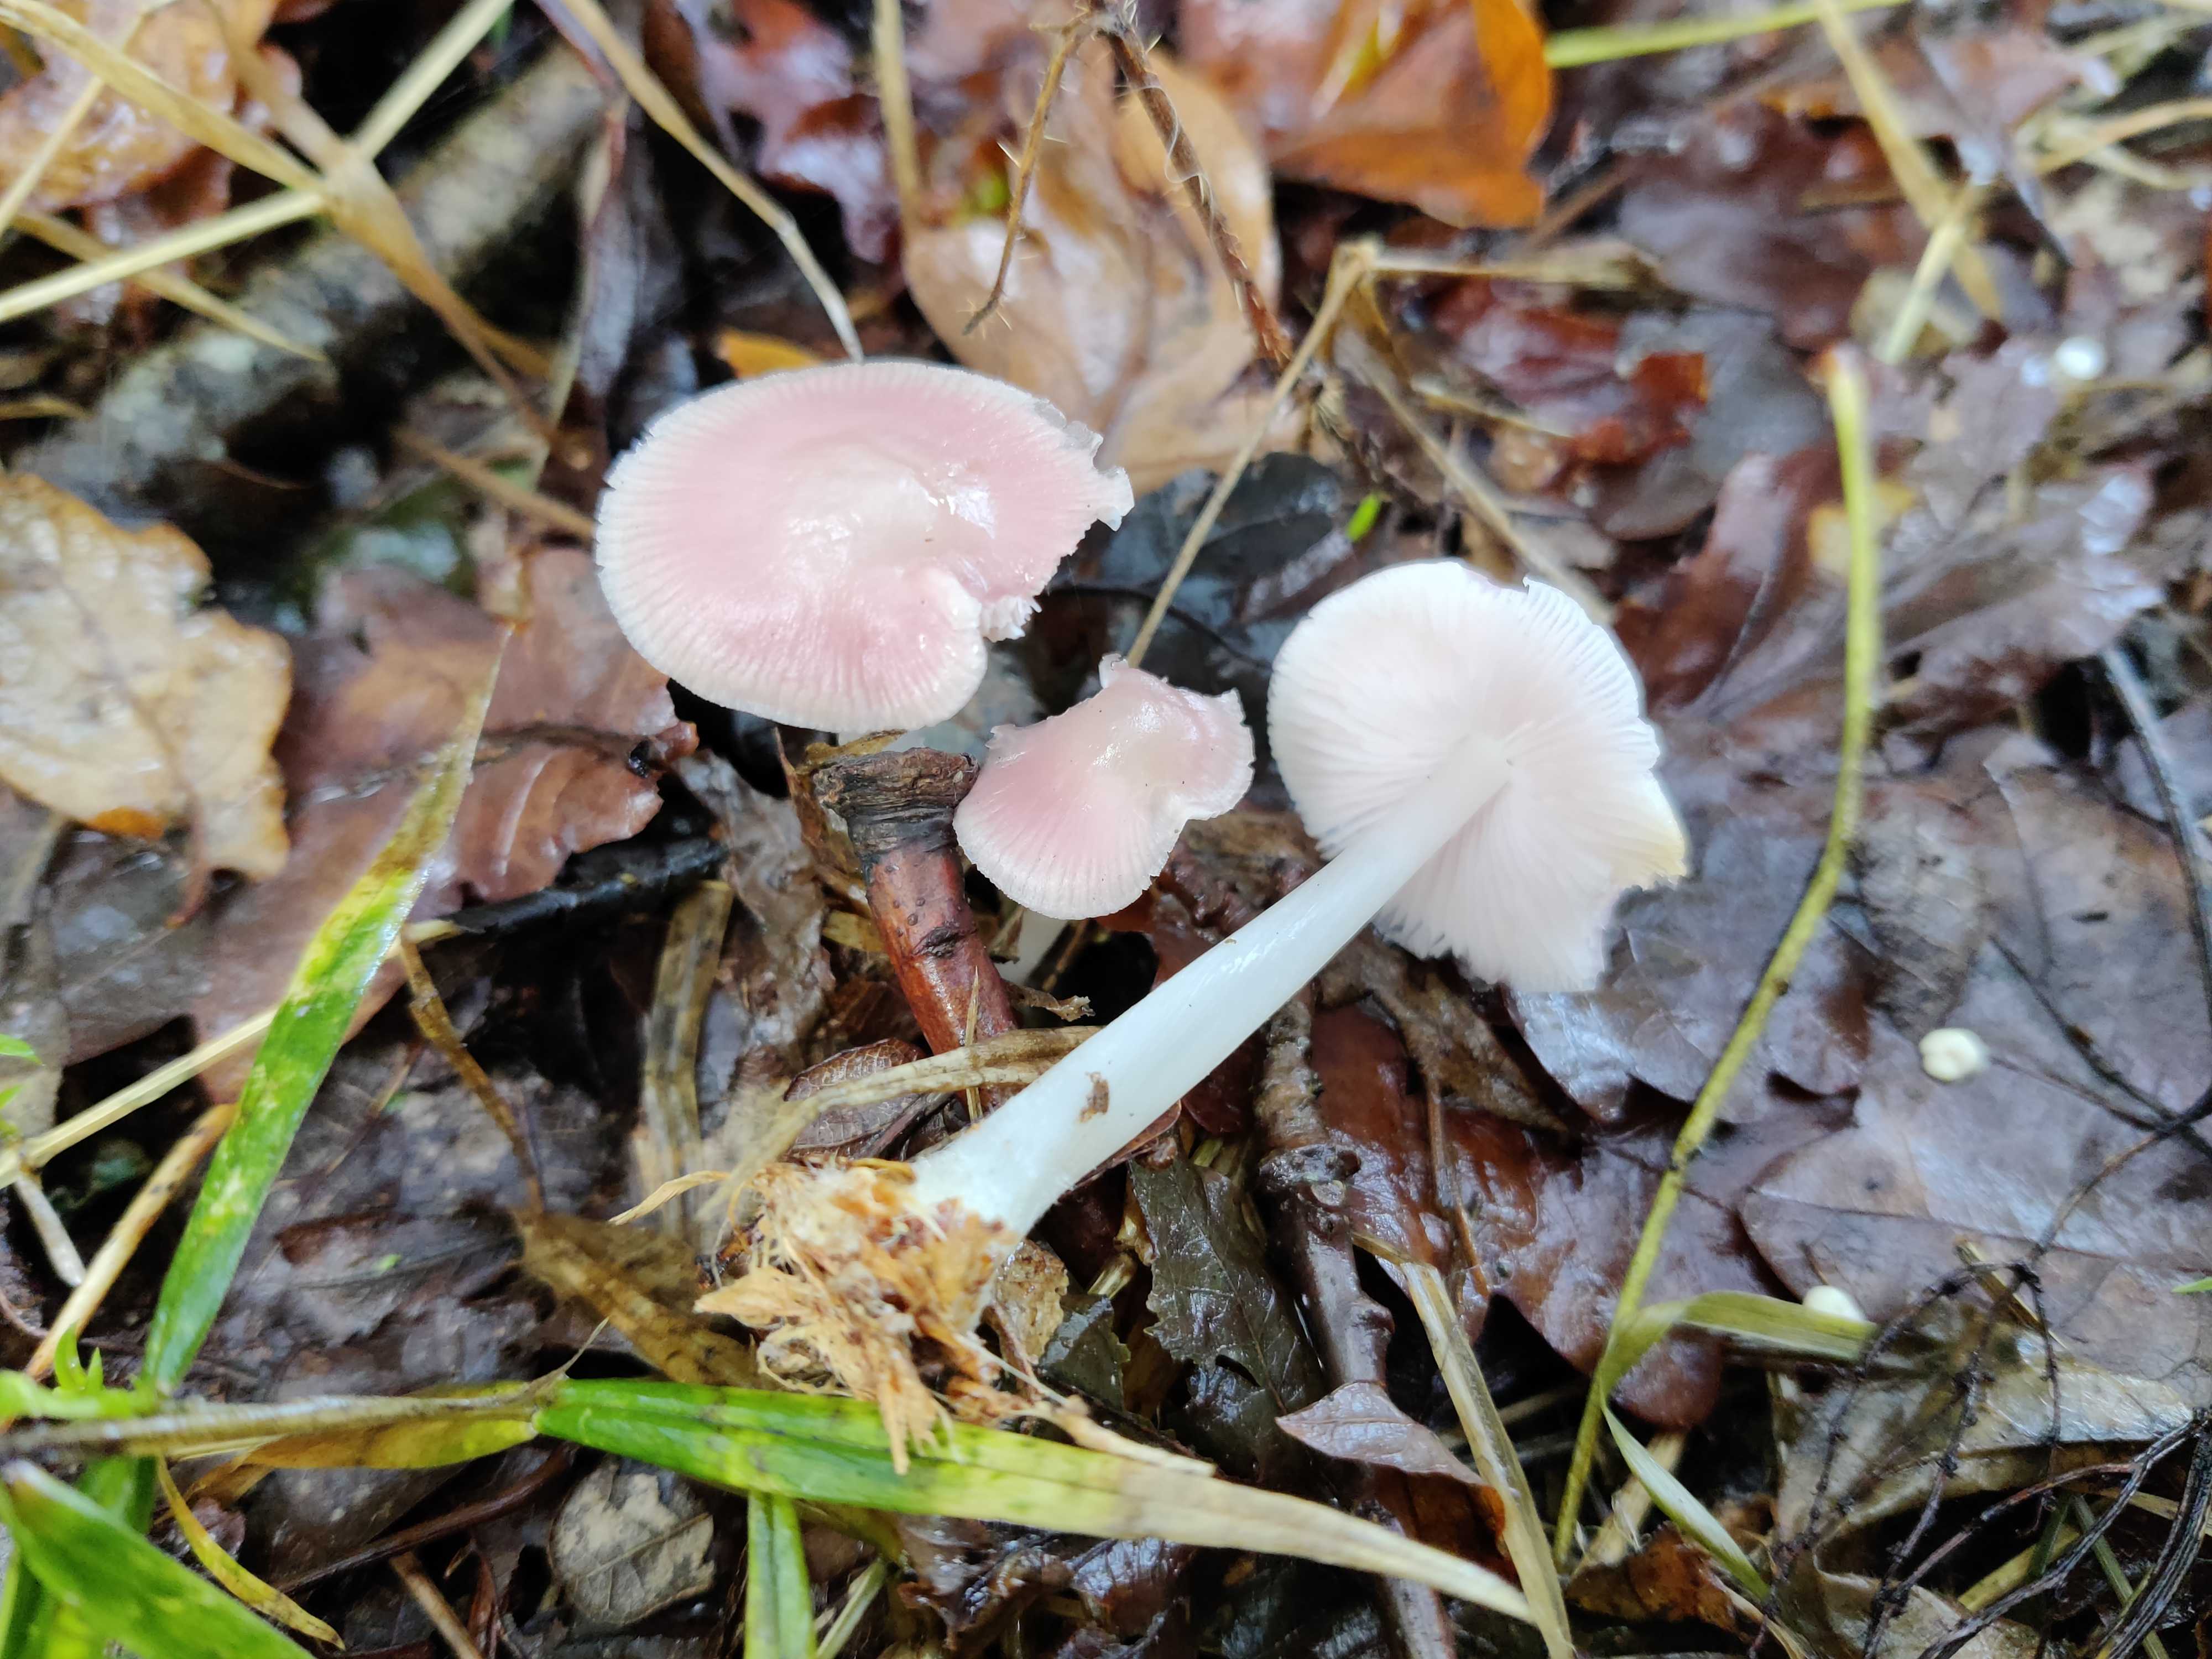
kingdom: Fungi
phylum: Basidiomycota
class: Agaricomycetes
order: Agaricales
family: Mycenaceae
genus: Mycena
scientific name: Mycena rosea
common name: rosa huesvamp
